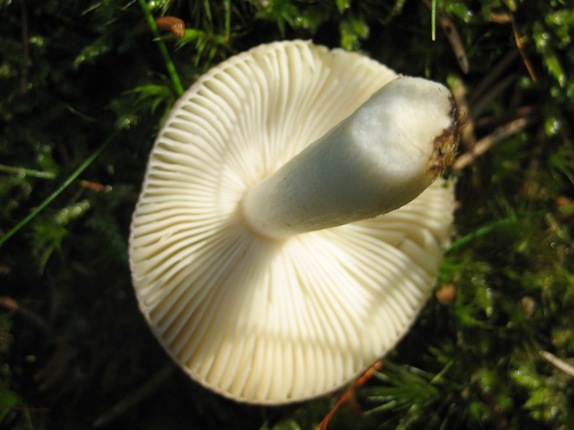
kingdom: Fungi
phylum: Basidiomycota
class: Agaricomycetes
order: Russulales
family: Russulaceae
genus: Russula
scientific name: Russula nauseosa
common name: spinkel skørhat
